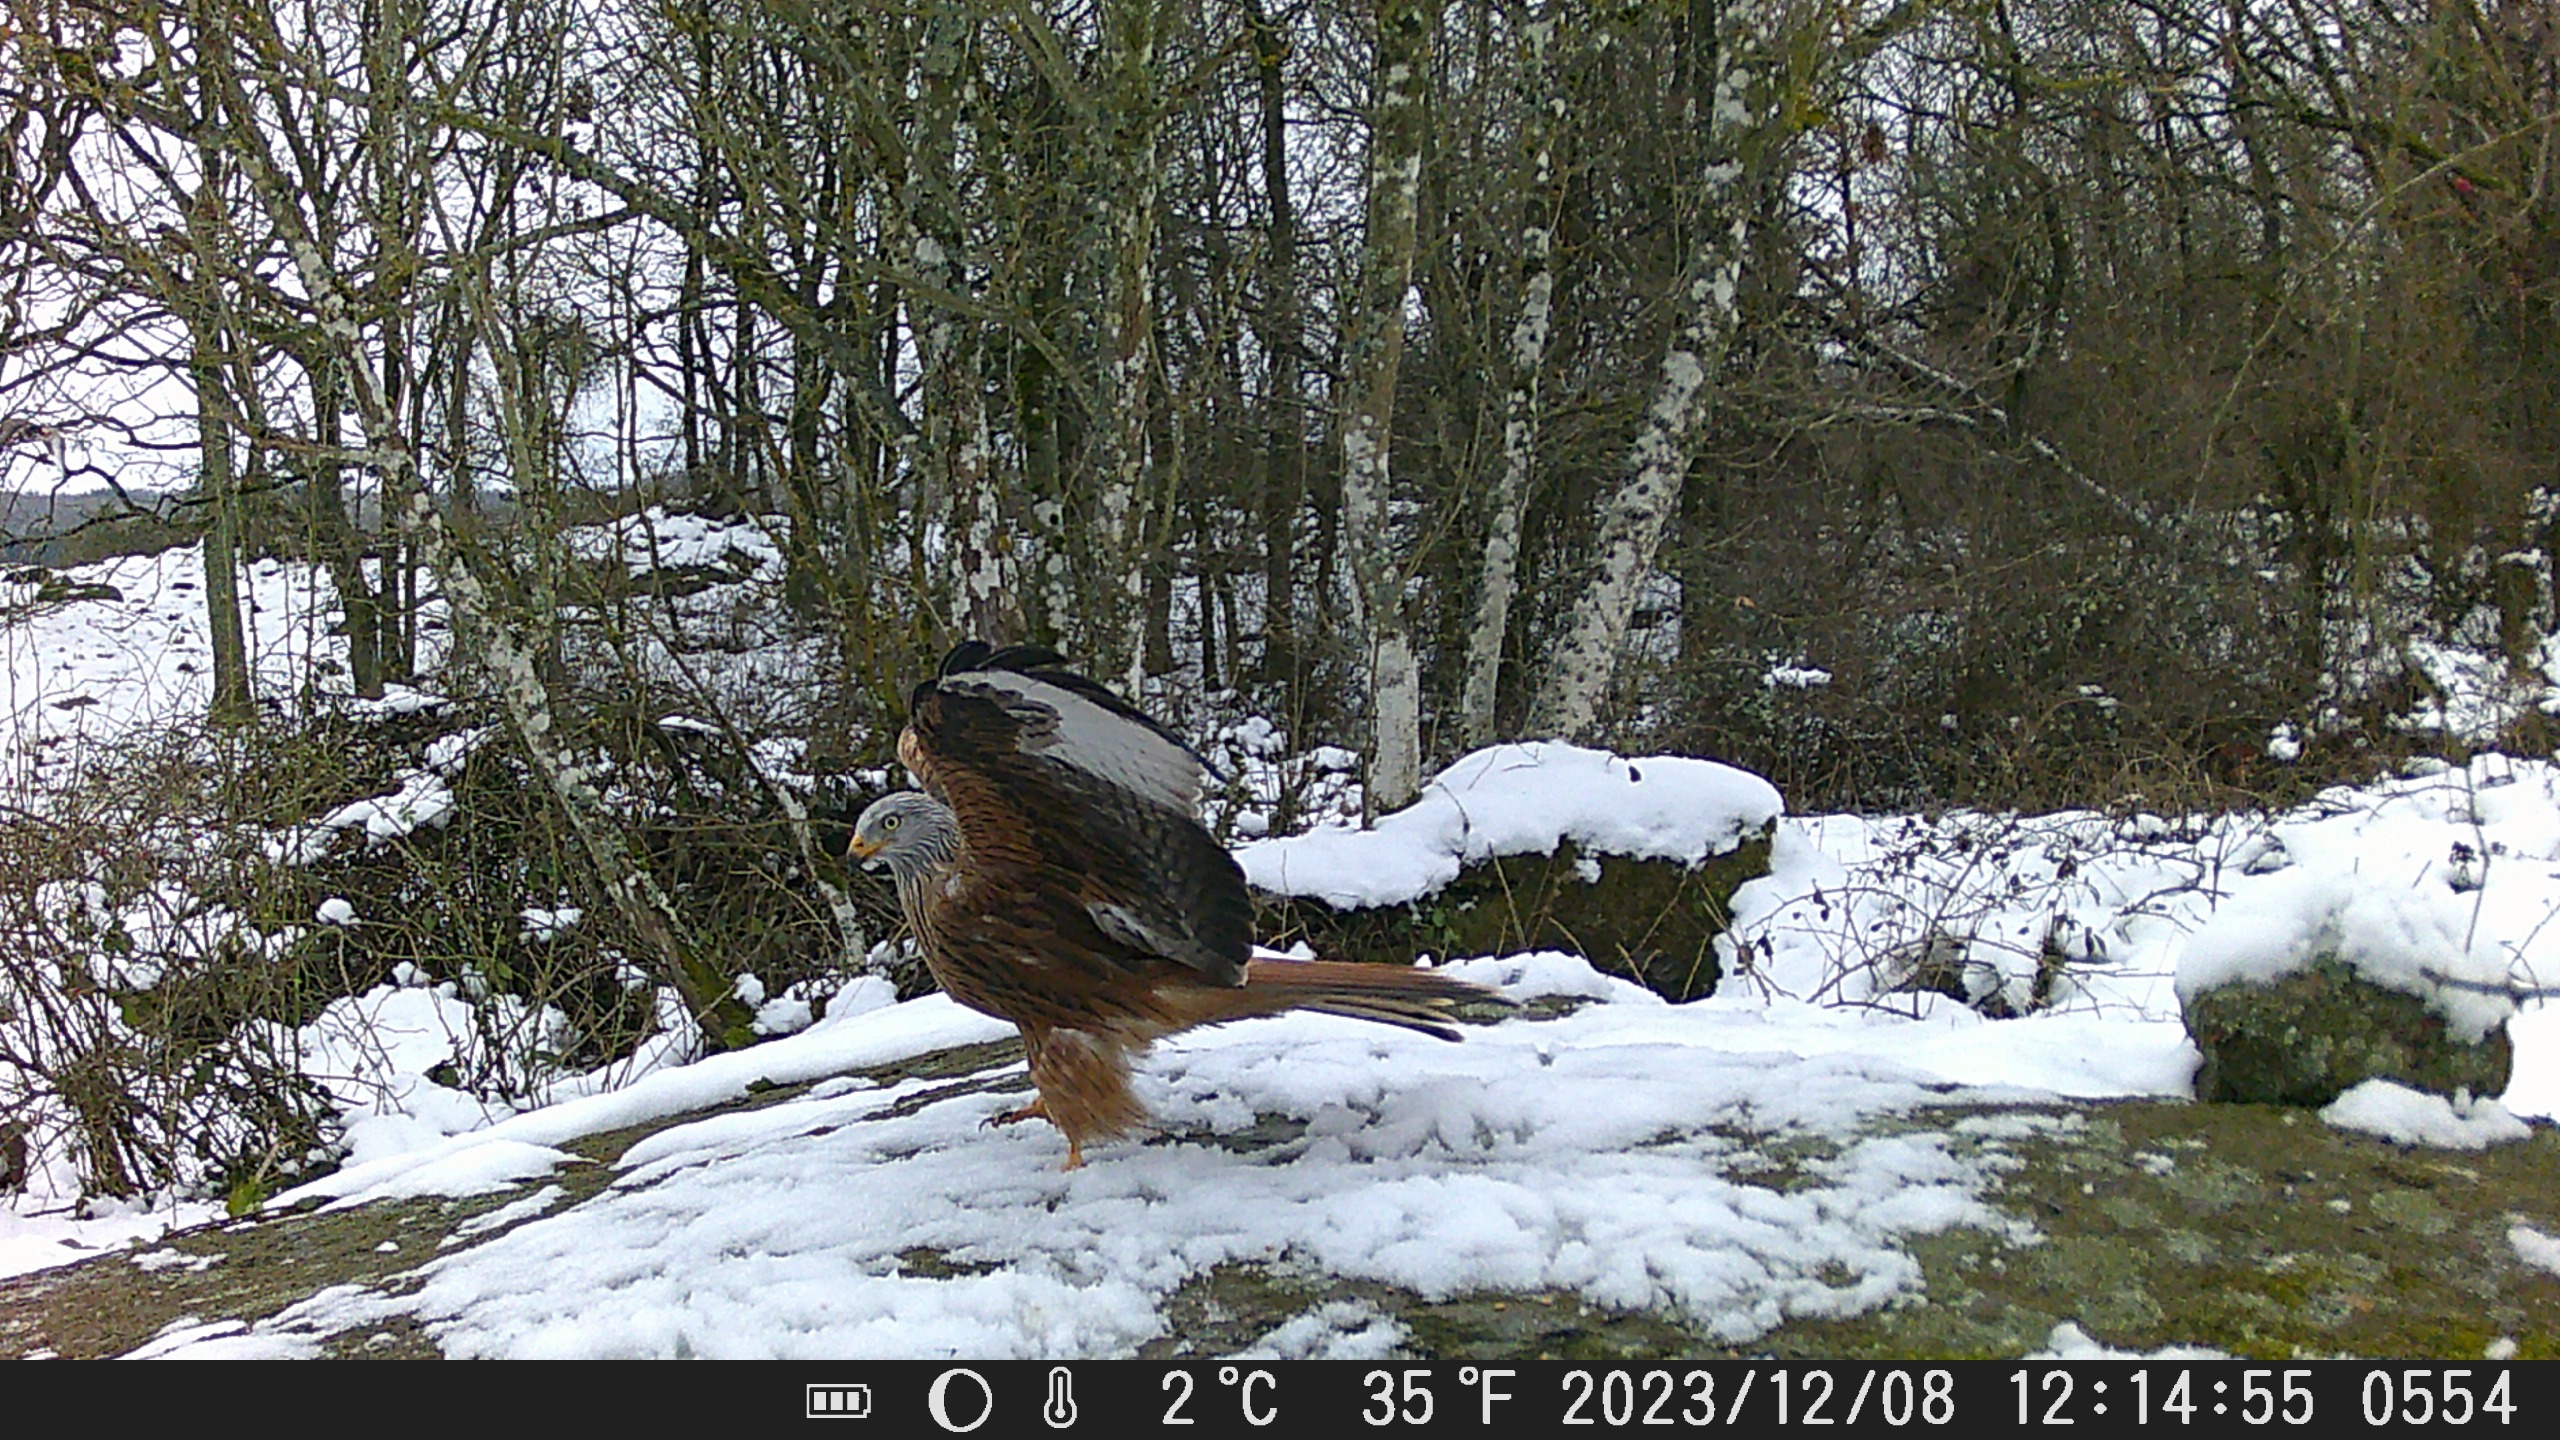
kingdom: Animalia
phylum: Chordata
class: Aves
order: Accipitriformes
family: Accipitridae
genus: Milvus
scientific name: Milvus milvus
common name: Rød glente
